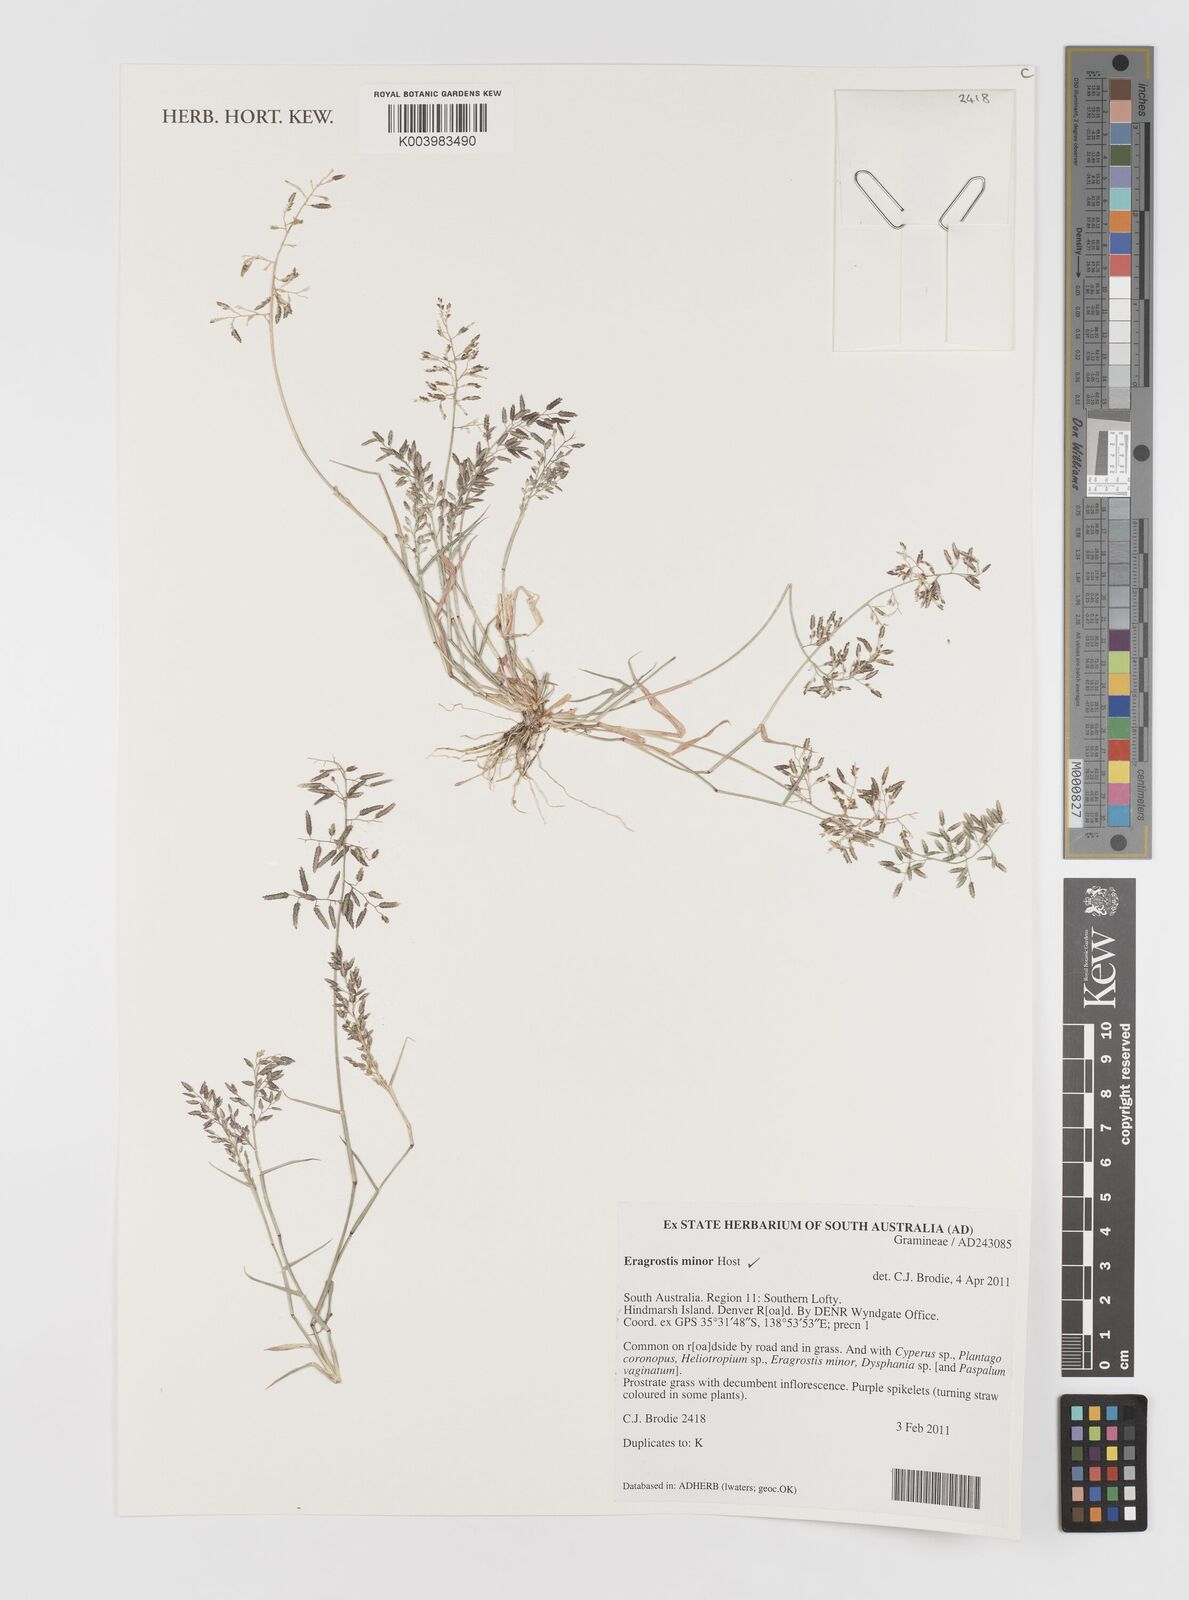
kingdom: Plantae
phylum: Tracheophyta
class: Liliopsida
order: Poales
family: Poaceae
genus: Eragrostis
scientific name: Eragrostis minor
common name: Small love-grass
